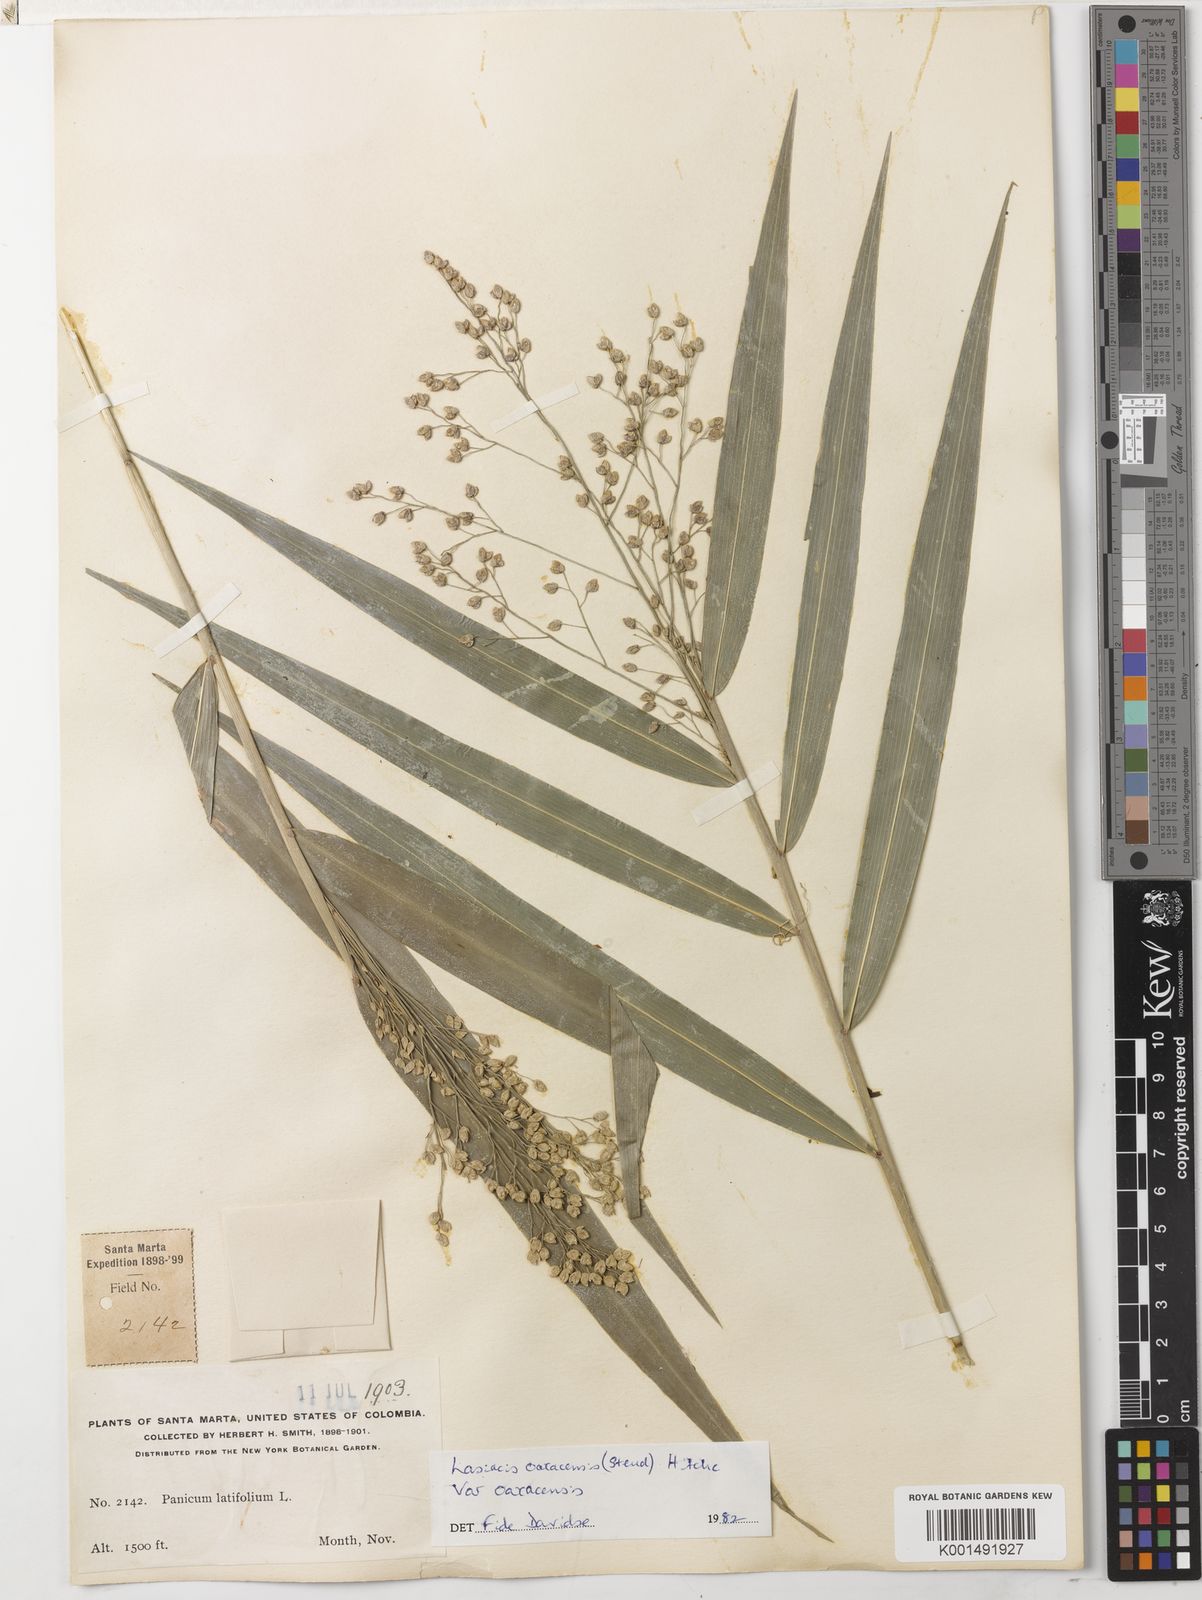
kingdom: Plantae
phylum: Tracheophyta
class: Liliopsida
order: Poales
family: Poaceae
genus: Lasiacis
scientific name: Lasiacis oaxacensis
